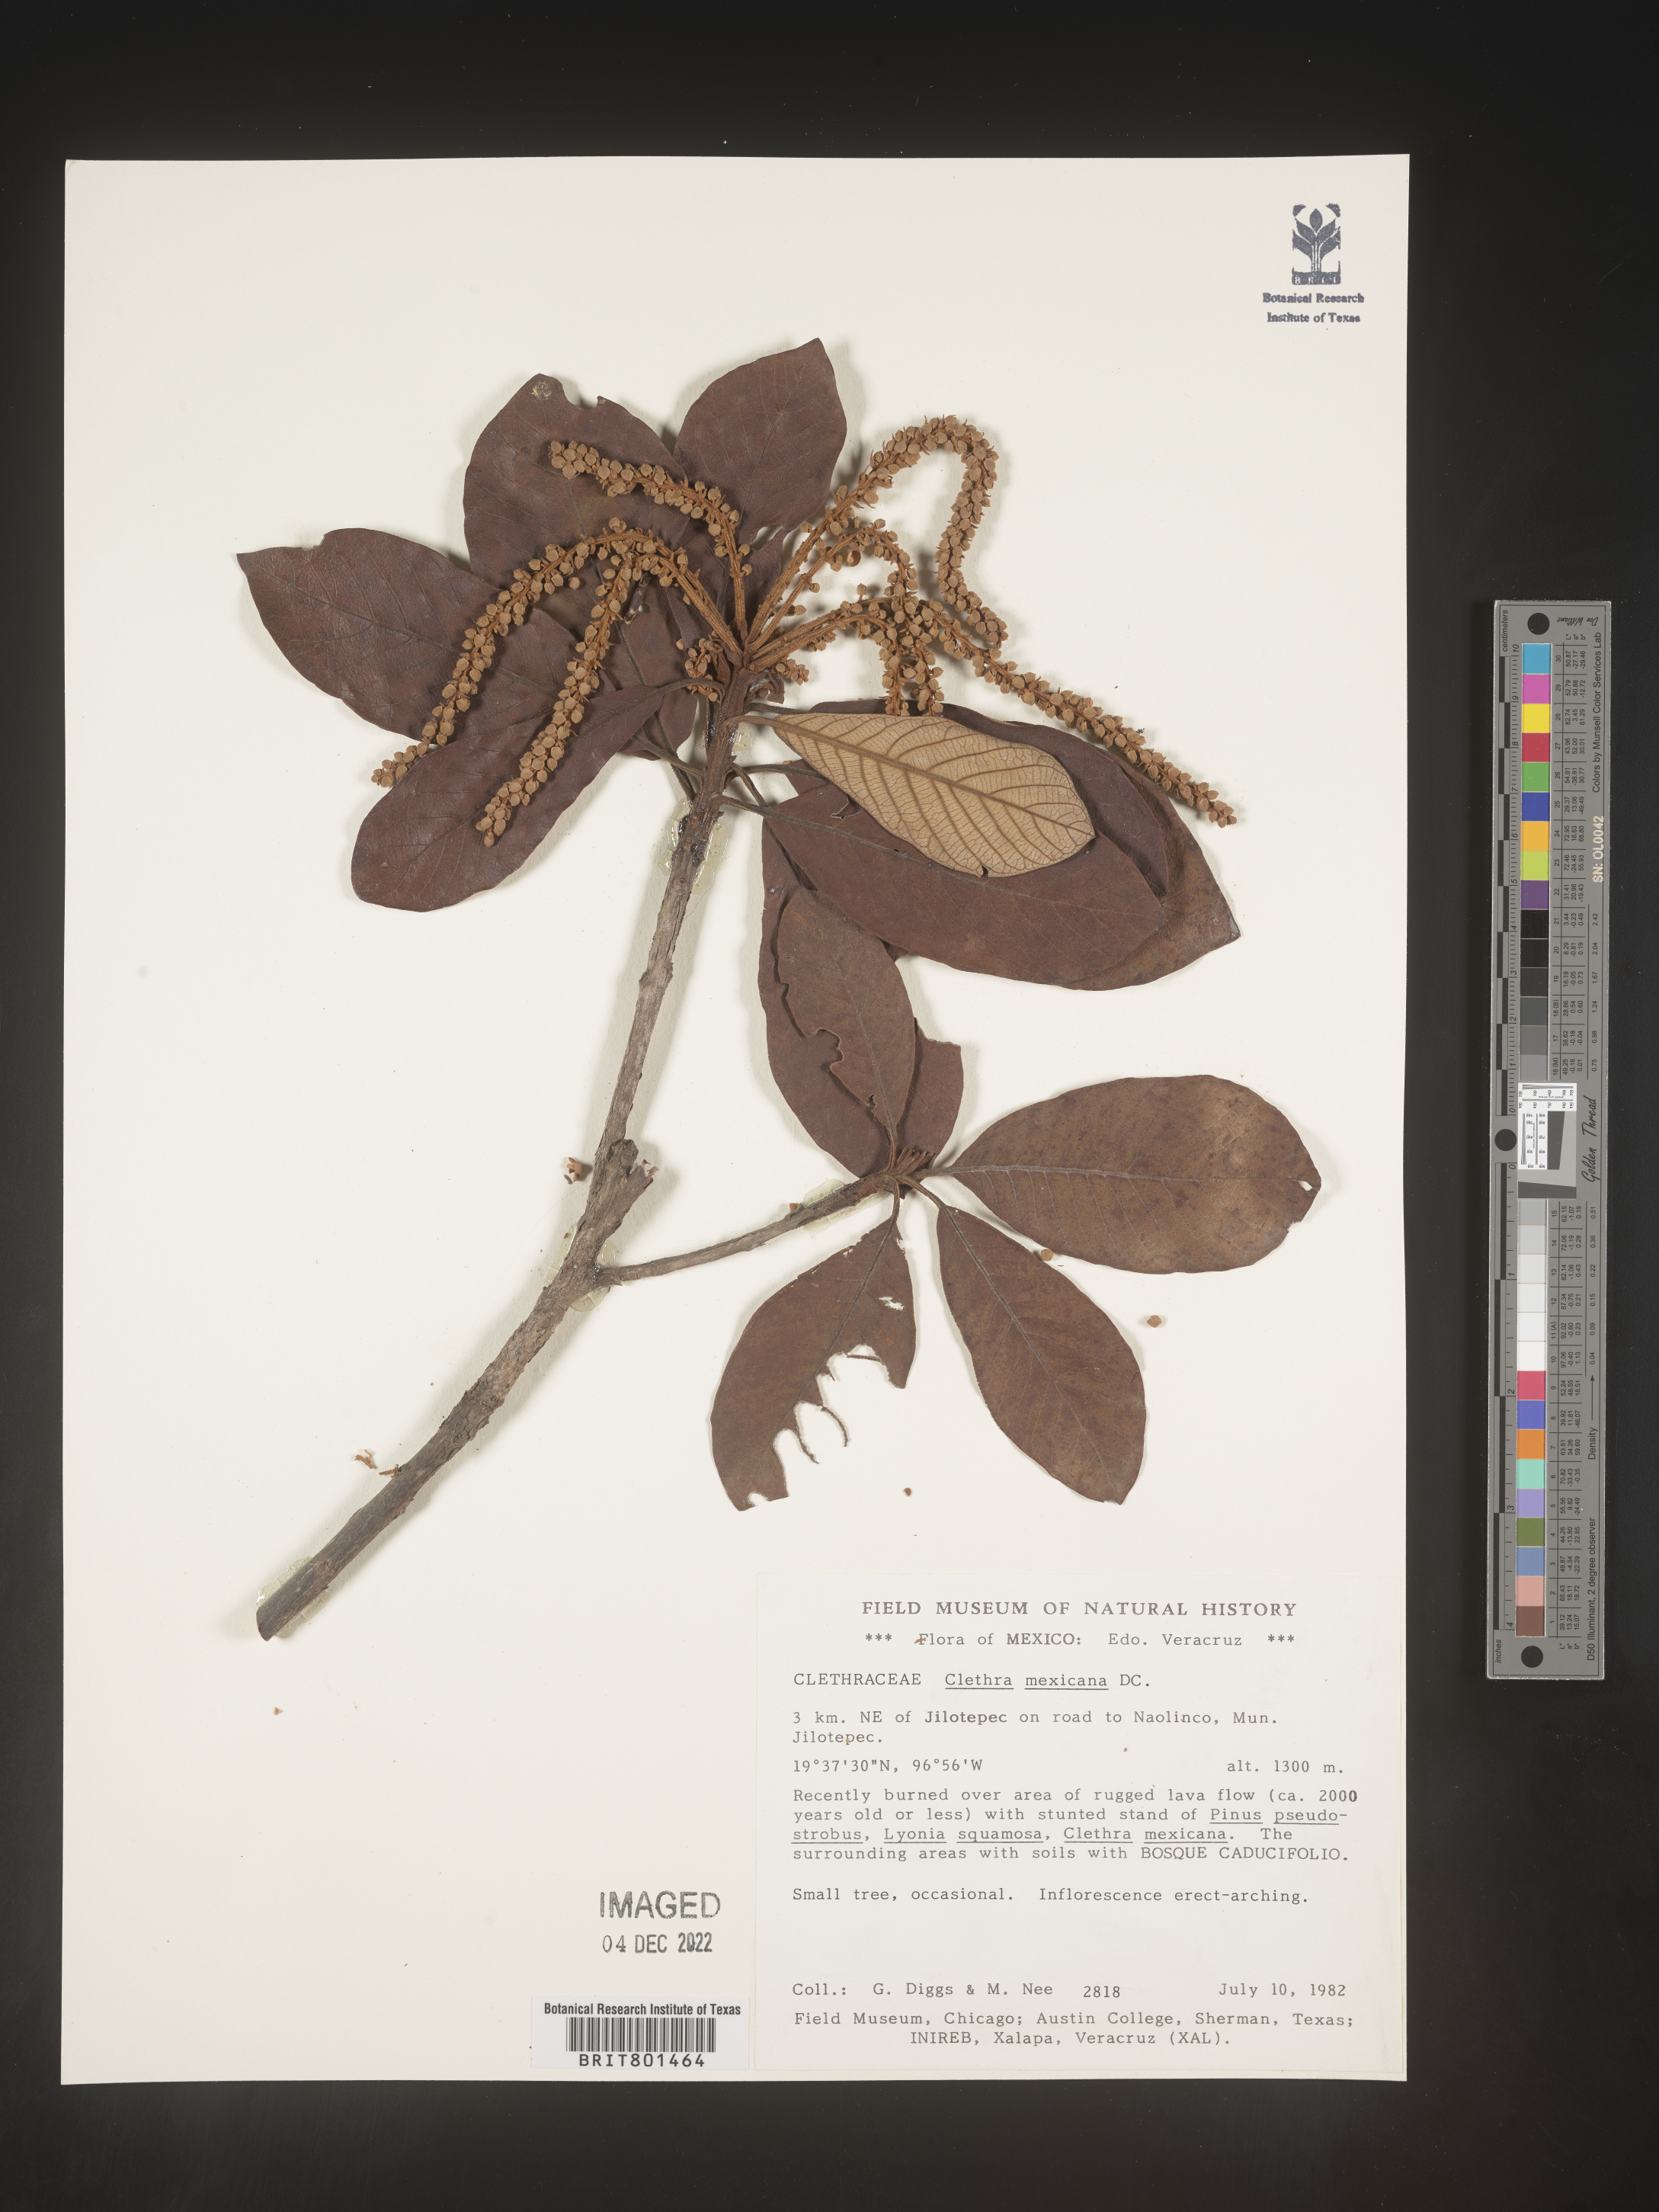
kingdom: Plantae
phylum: Tracheophyta
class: Magnoliopsida
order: Ericales
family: Clethraceae
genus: Clethra
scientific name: Clethra
